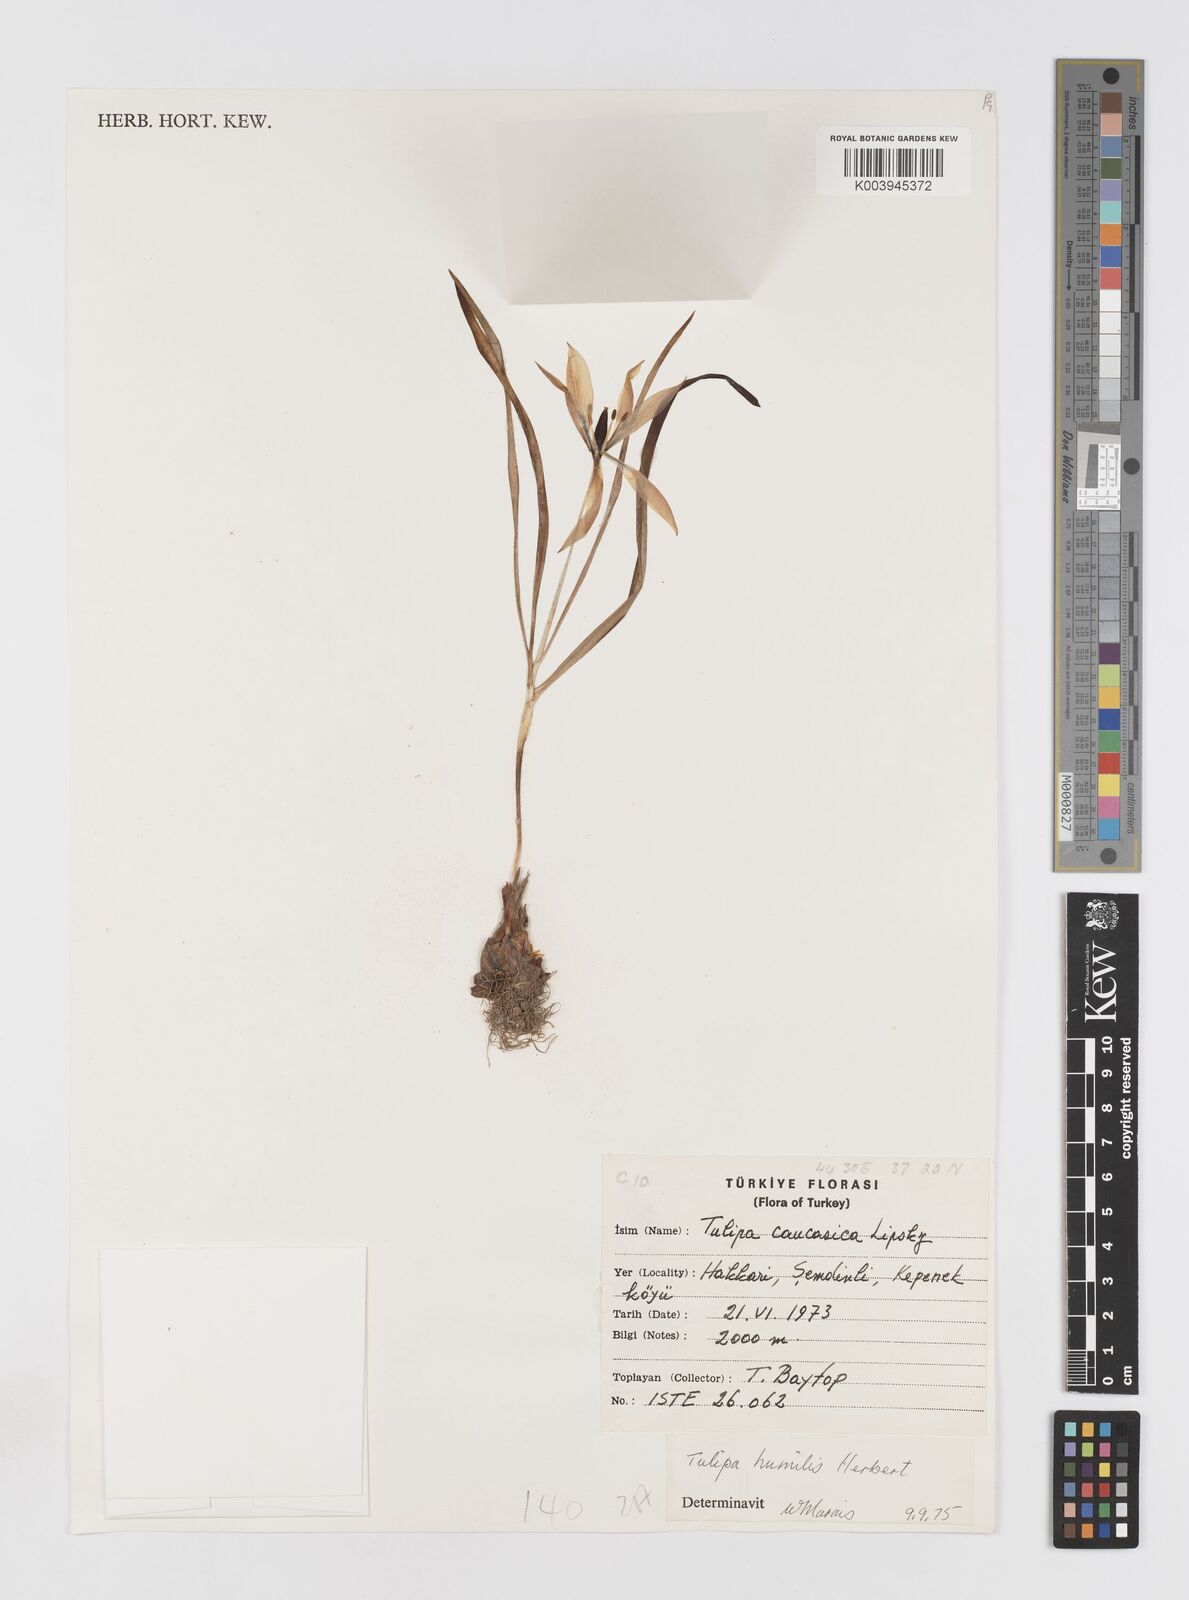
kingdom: Plantae
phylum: Tracheophyta
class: Liliopsida
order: Liliales
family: Liliaceae
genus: Tulipa
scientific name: Tulipa humilis
